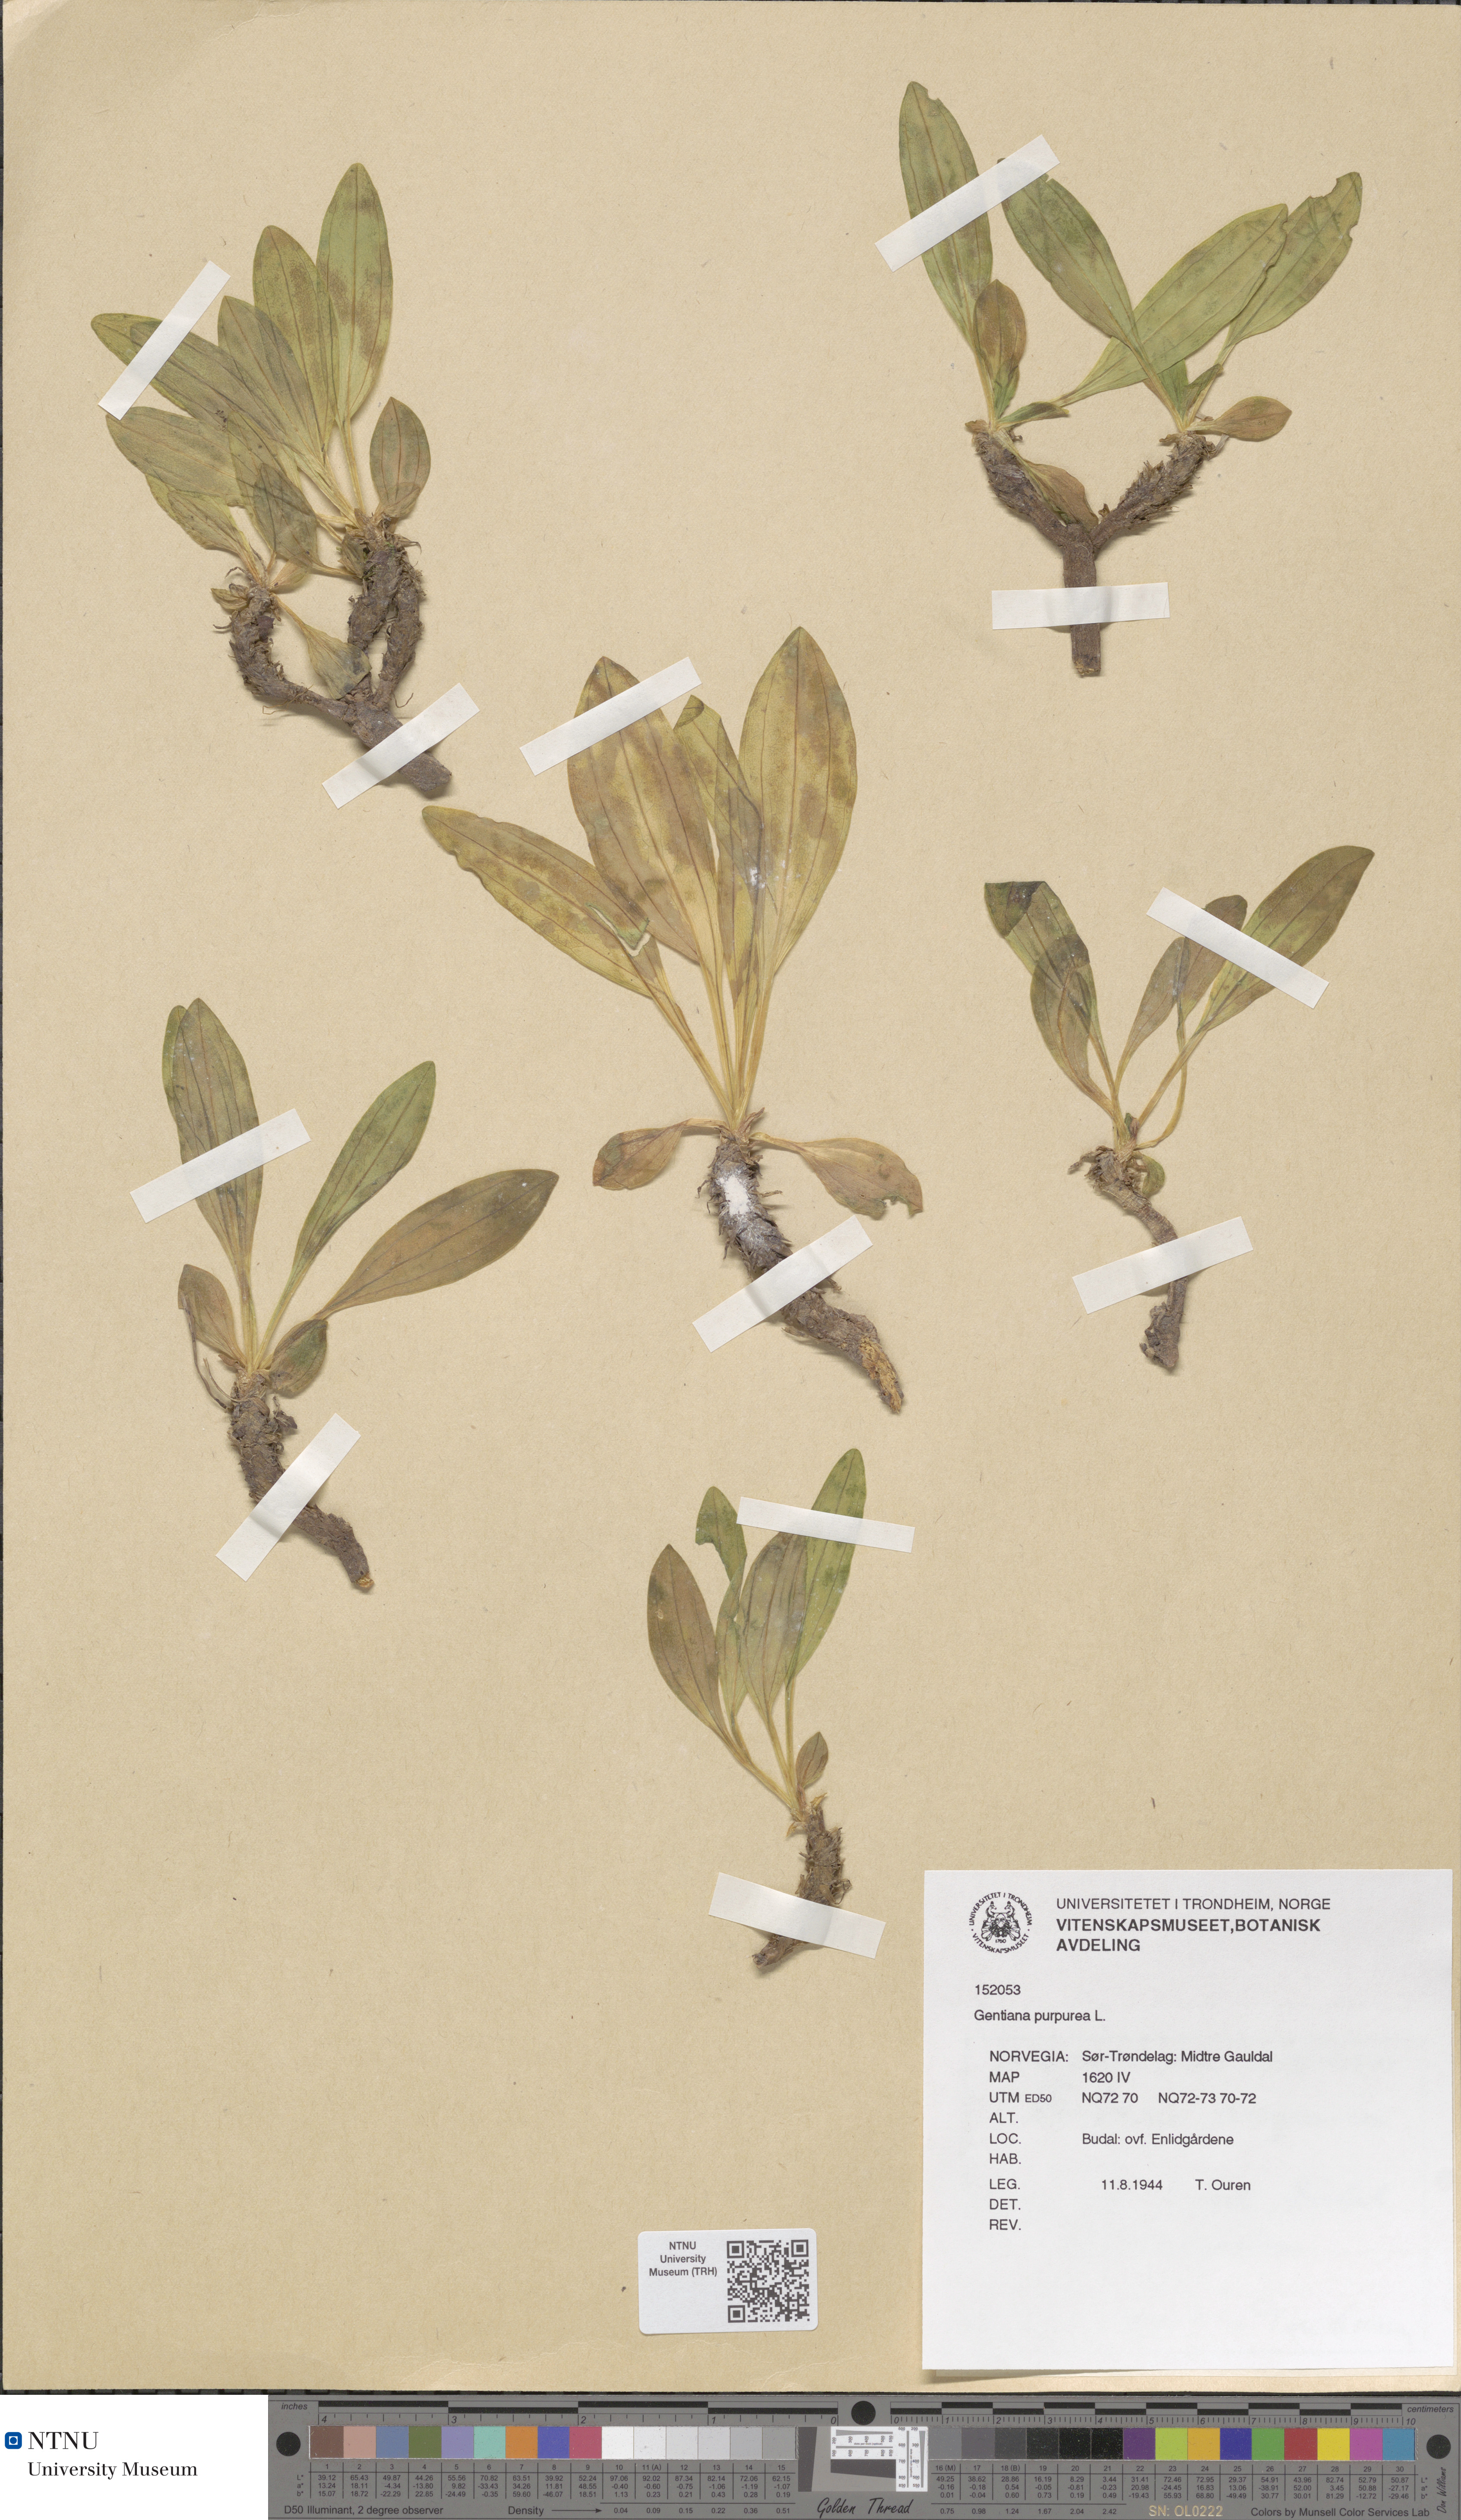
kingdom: Plantae
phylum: Tracheophyta
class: Magnoliopsida
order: Gentianales
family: Gentianaceae
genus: Gentiana
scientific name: Gentiana purpurea
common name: Purple gentian
